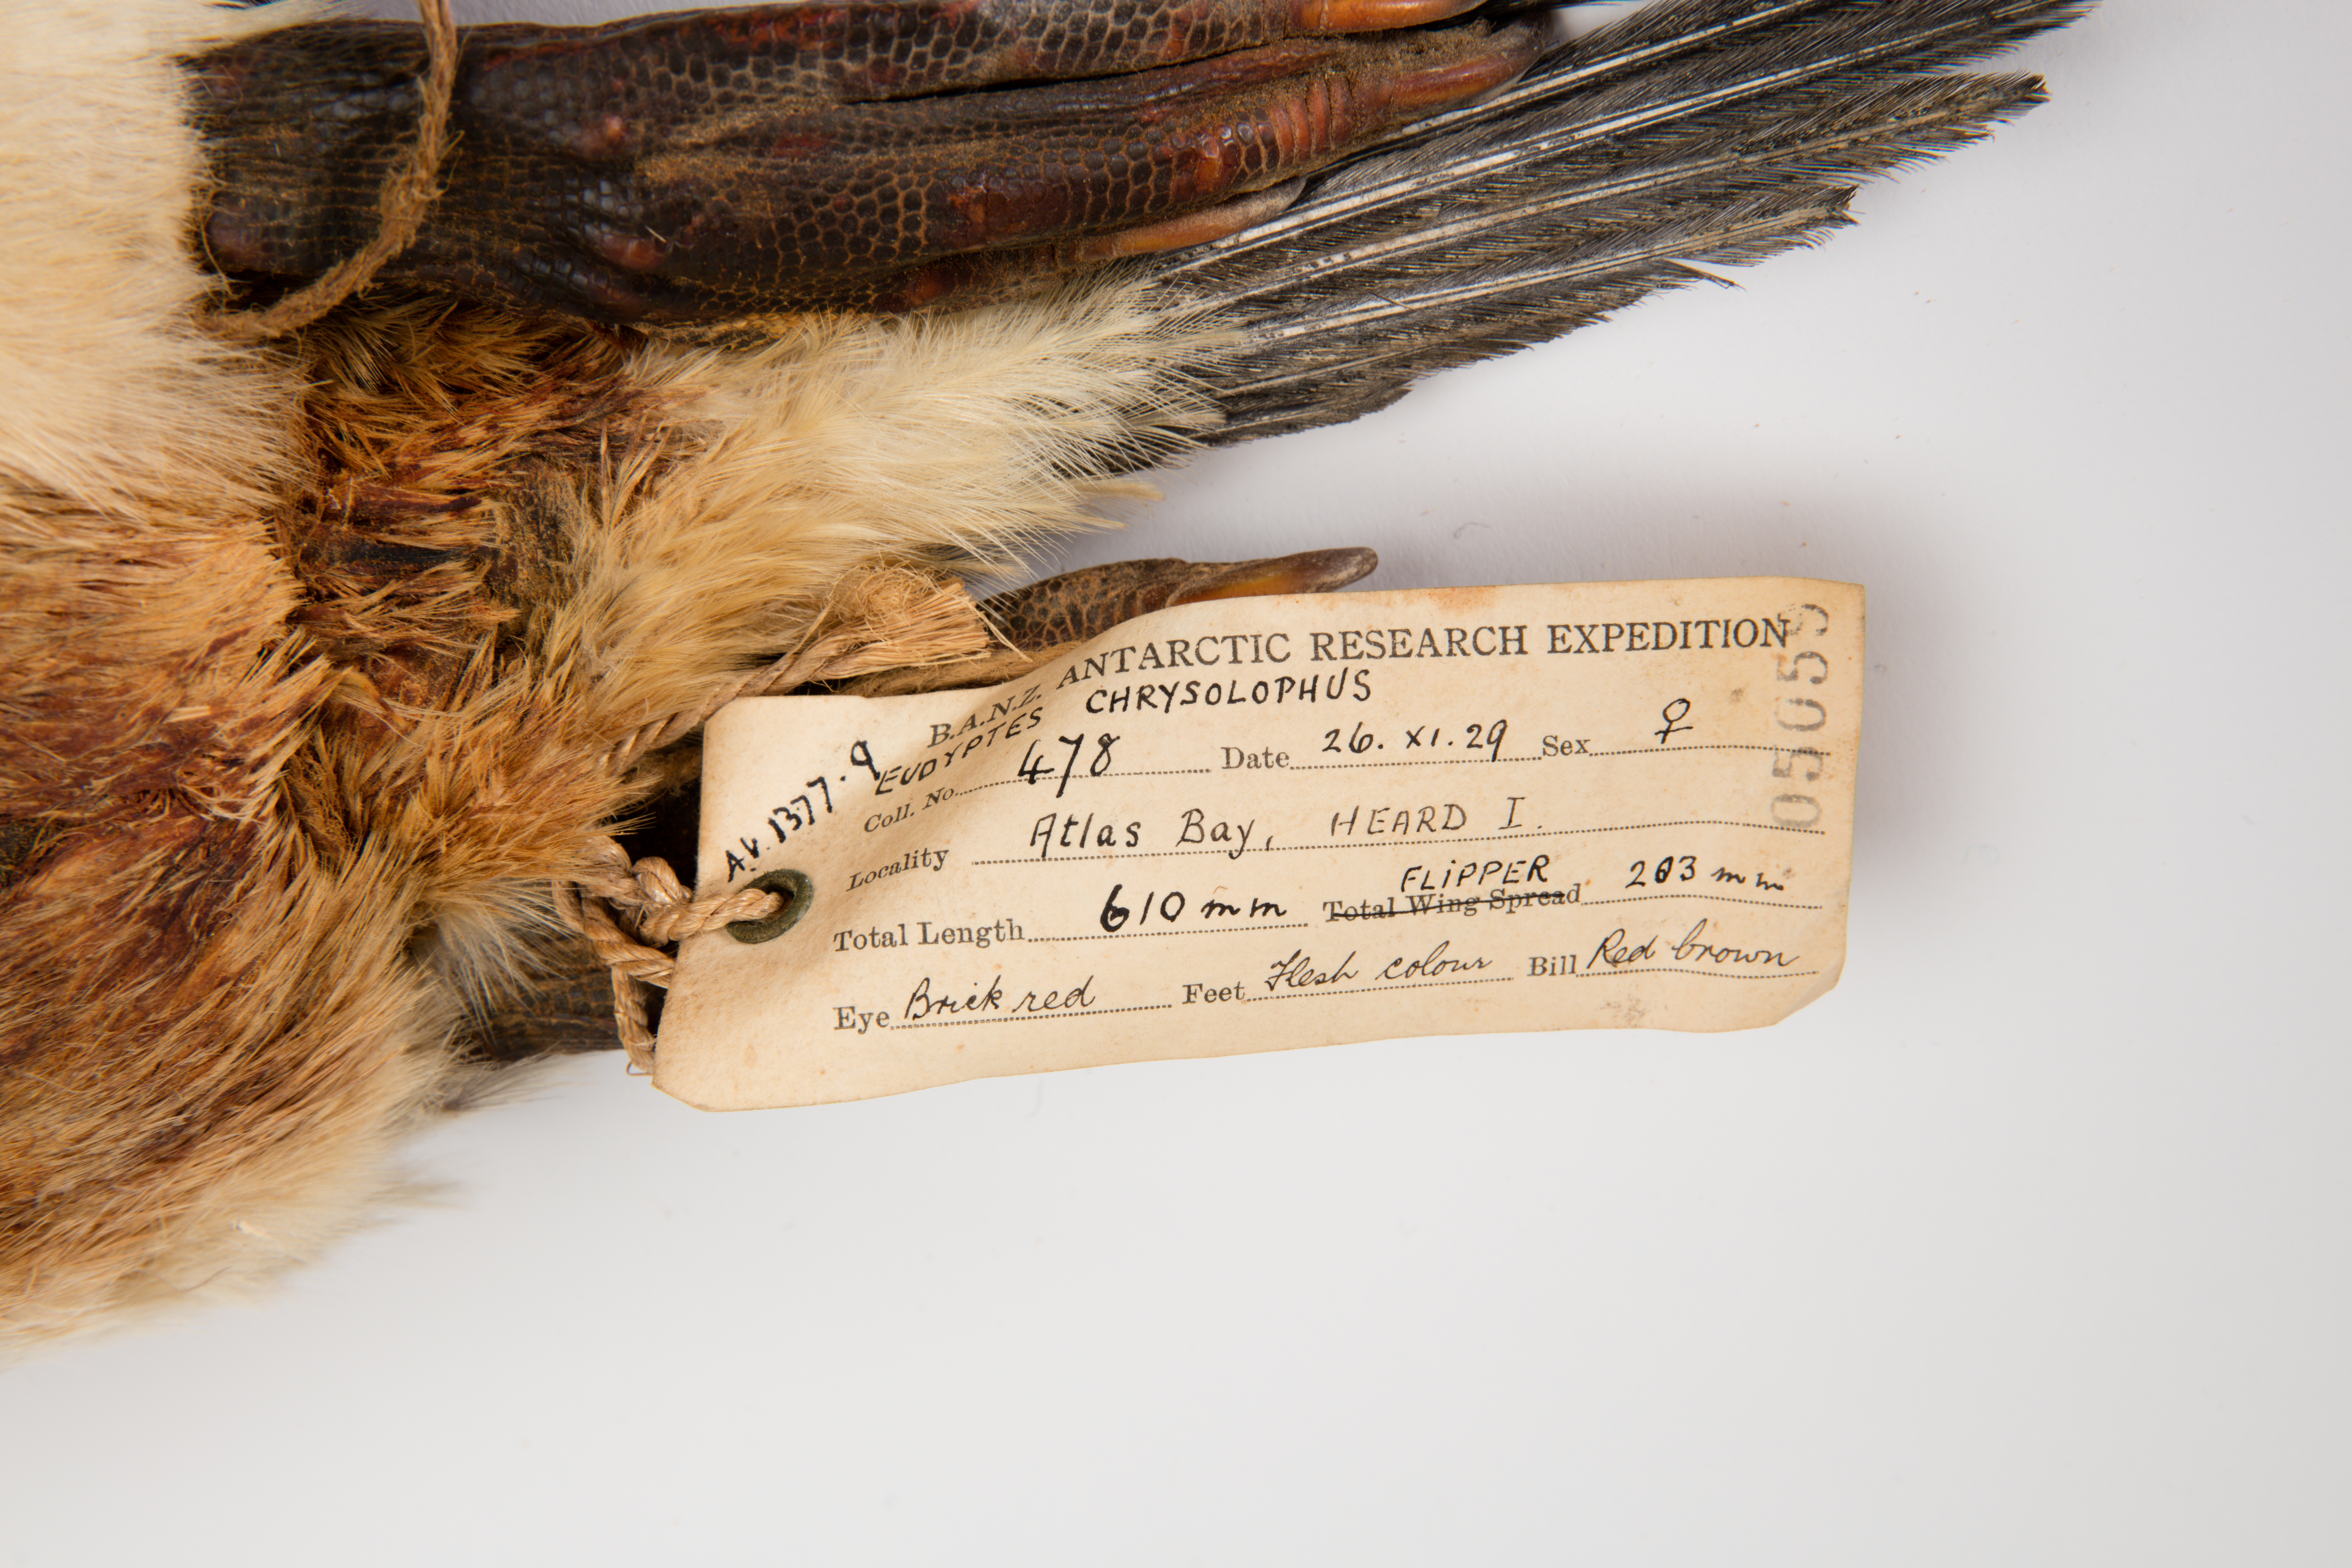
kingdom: Animalia
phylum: Chordata
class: Aves
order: Sphenisciformes
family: Spheniscidae
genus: Eudyptes
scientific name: Eudyptes chrysolophus
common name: Macaroni penguin
